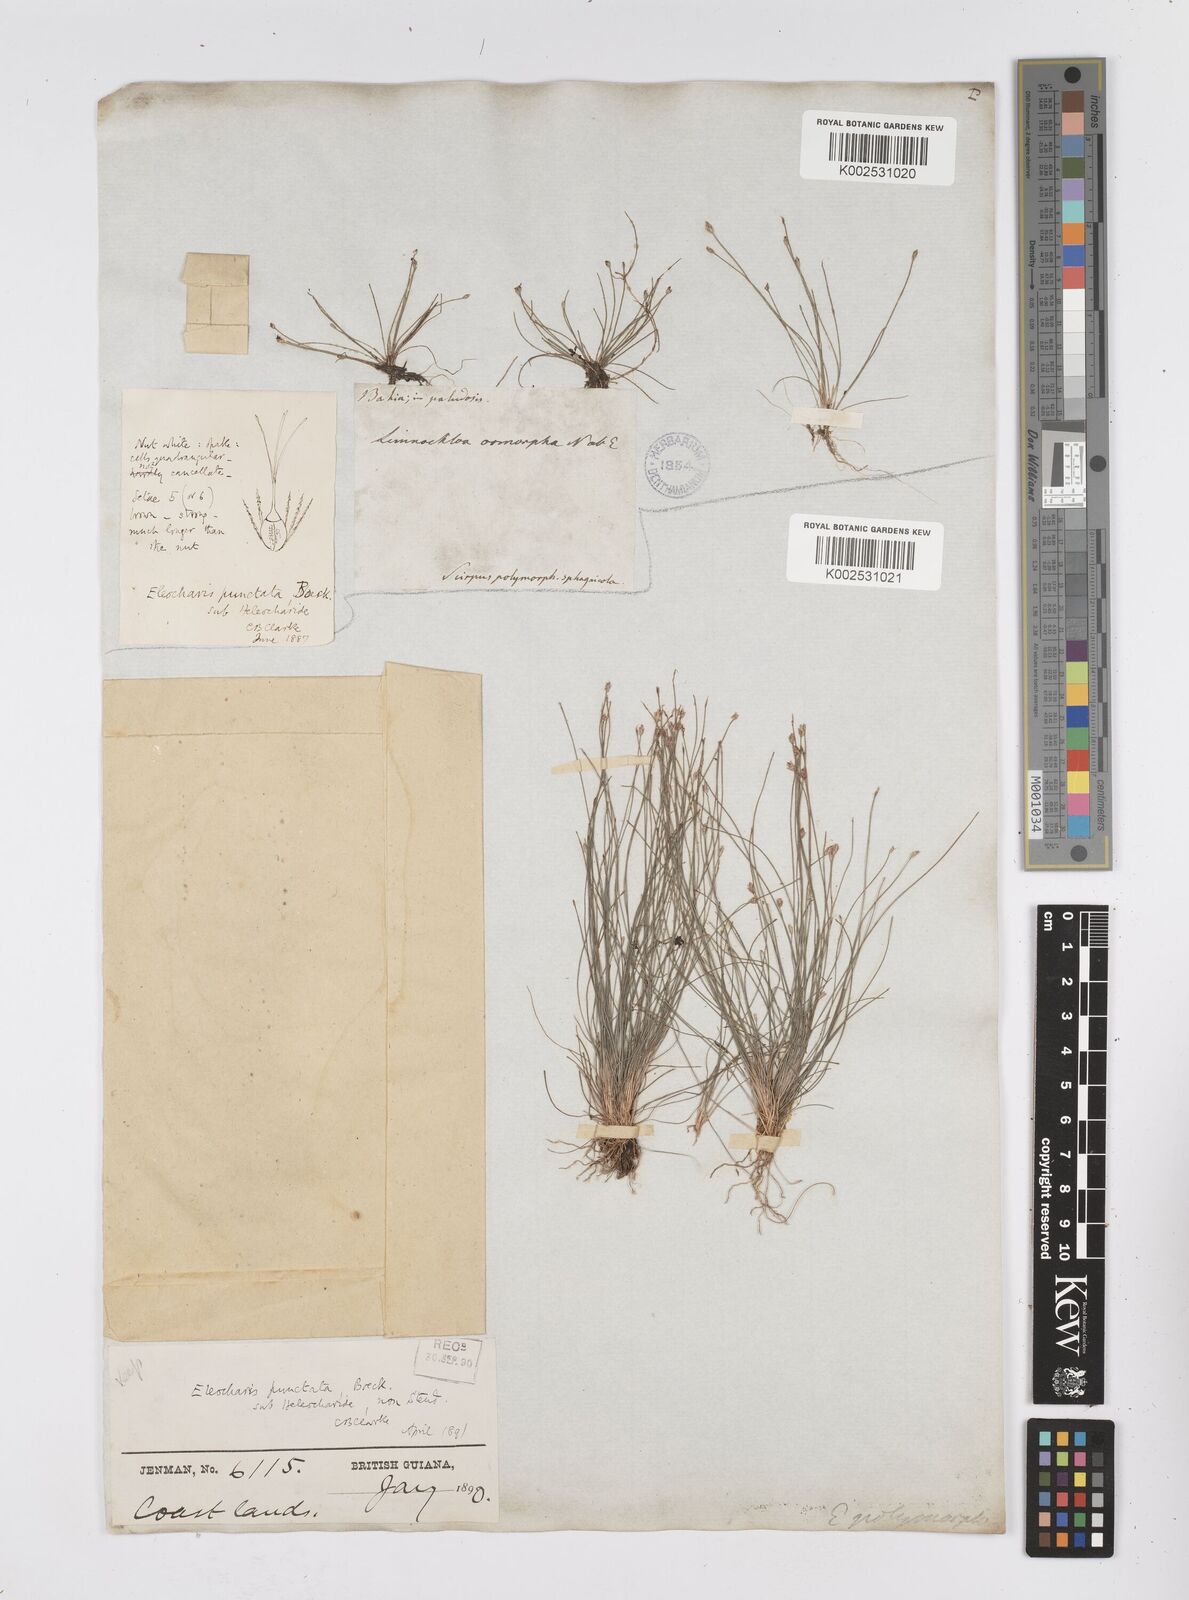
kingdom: Plantae
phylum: Tracheophyta
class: Liliopsida
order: Poales
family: Cyperaceae
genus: Eleocharis
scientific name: Eleocharis nana
